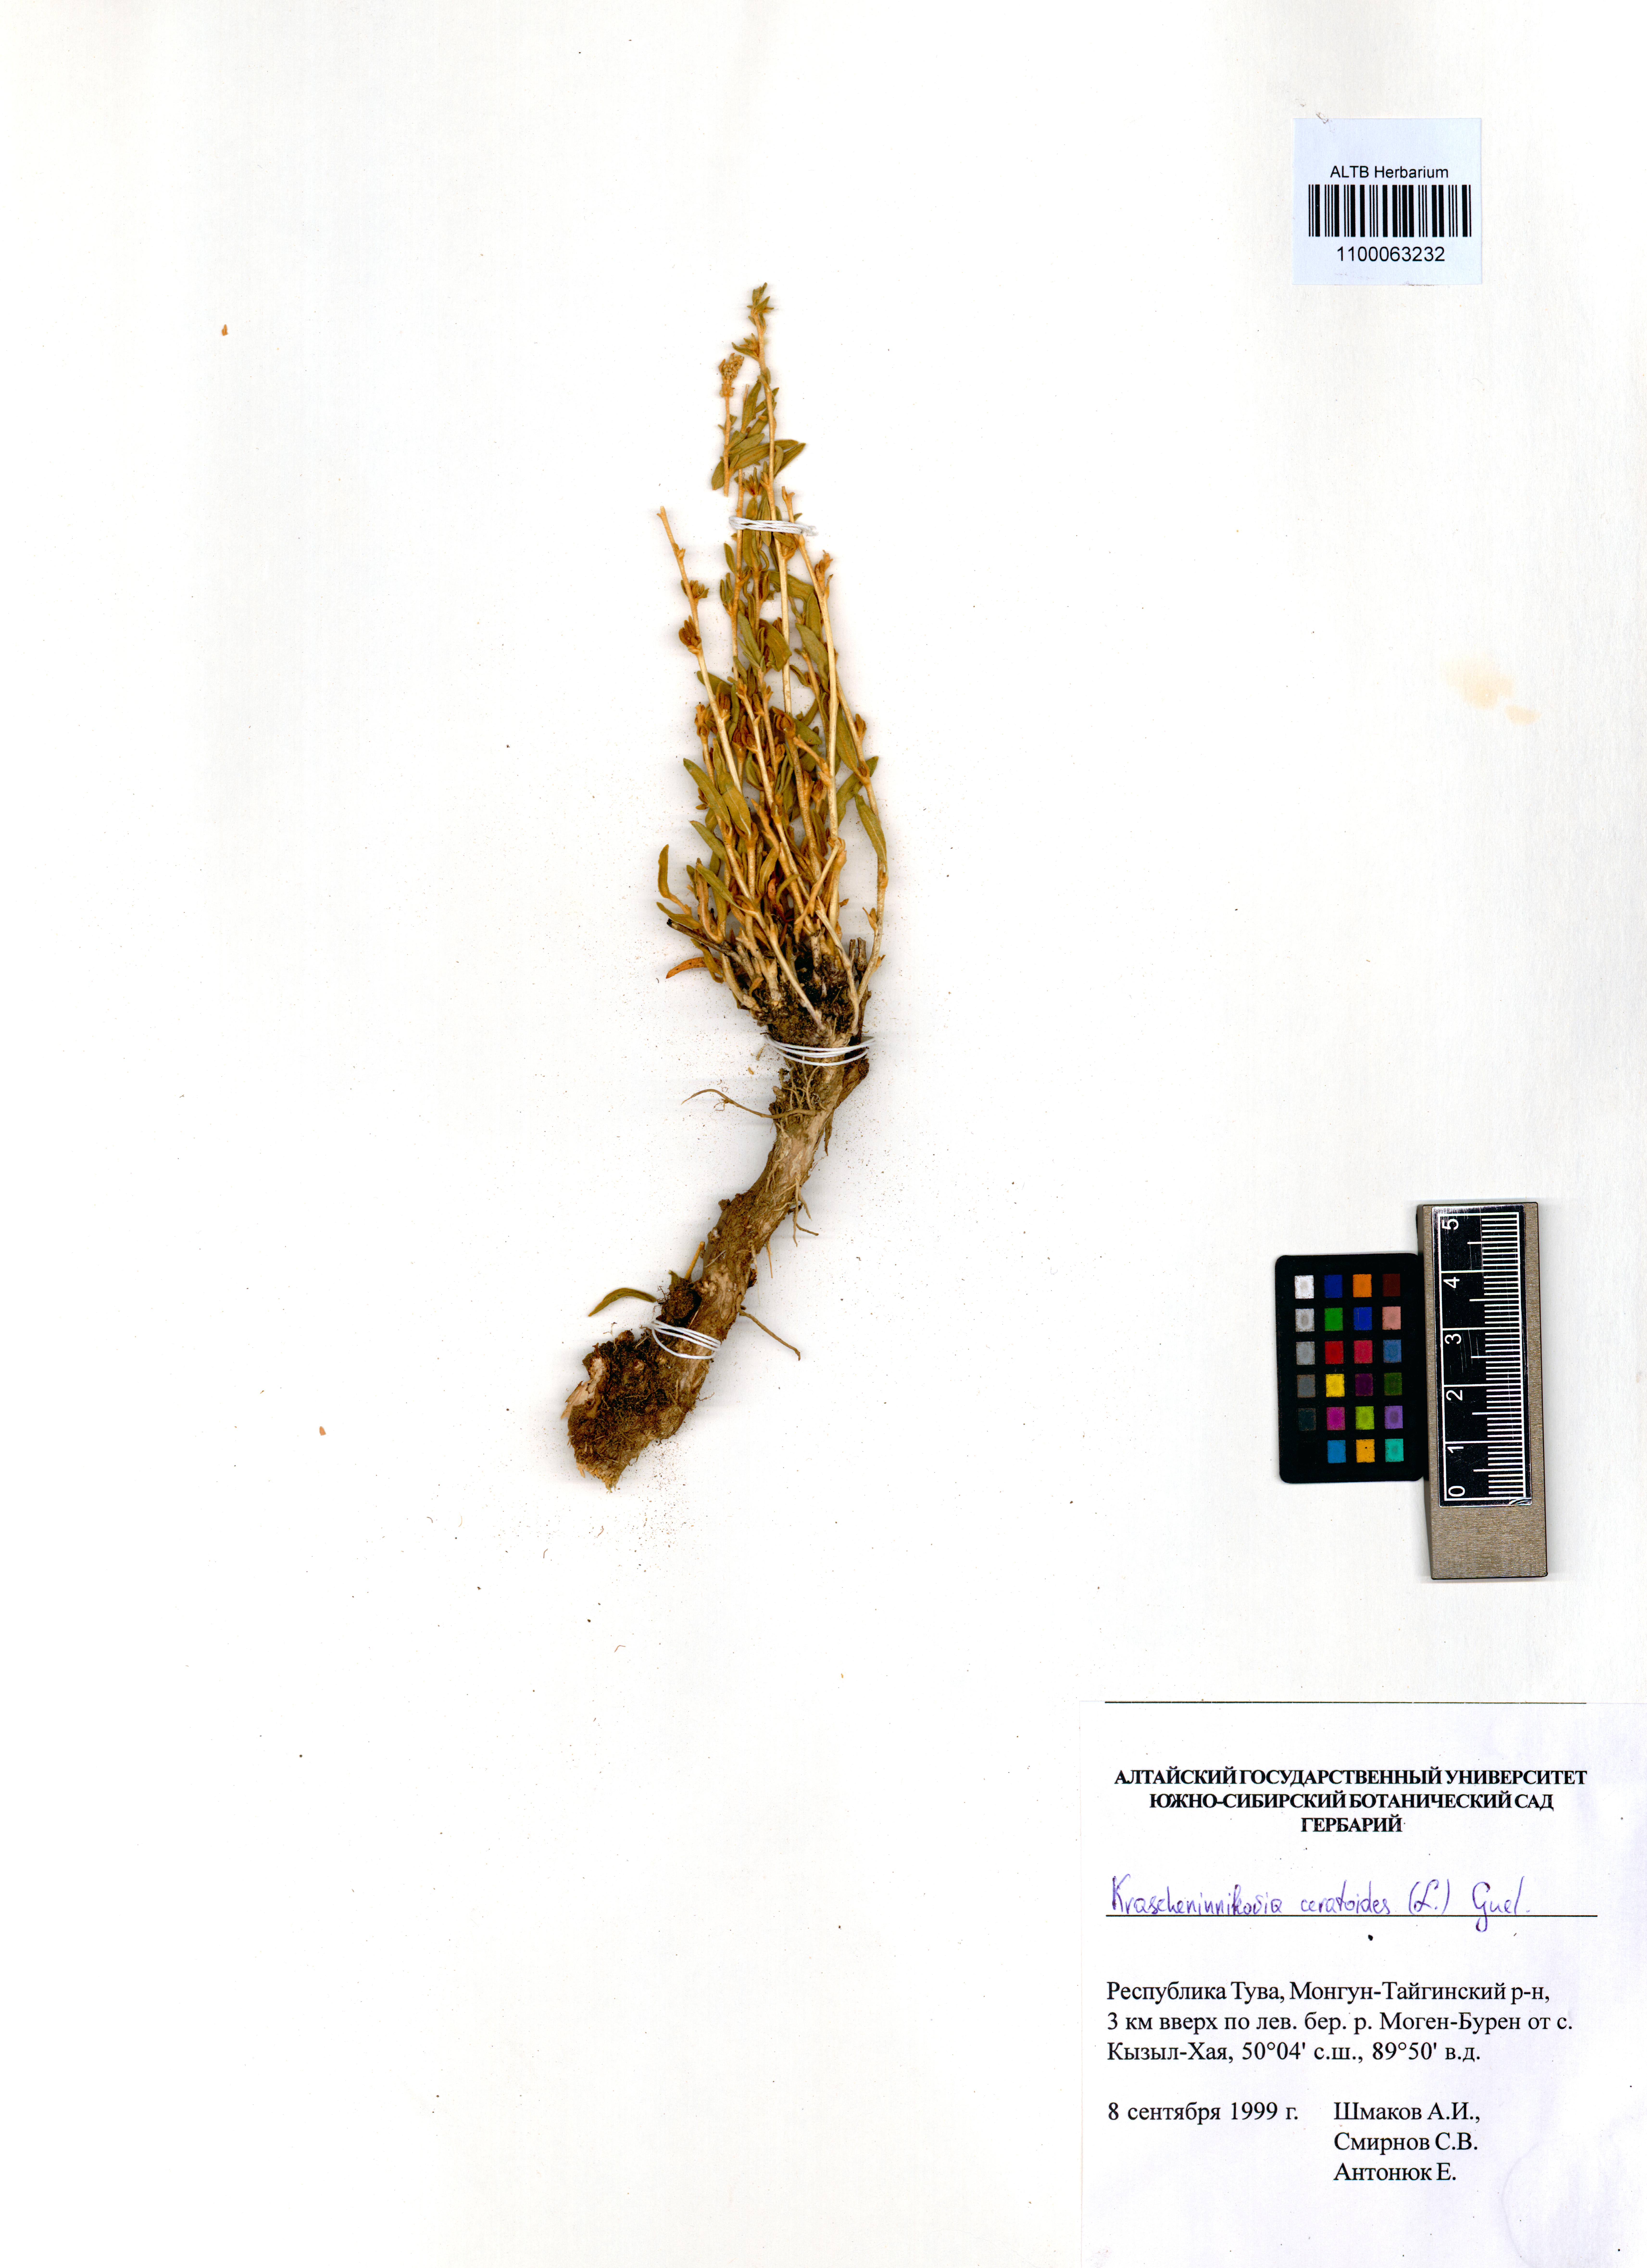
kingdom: Plantae
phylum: Tracheophyta
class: Magnoliopsida
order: Caryophyllales
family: Amaranthaceae
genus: Krascheninnikovia
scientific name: Krascheninnikovia ceratoides
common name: Pamirian winterfat
